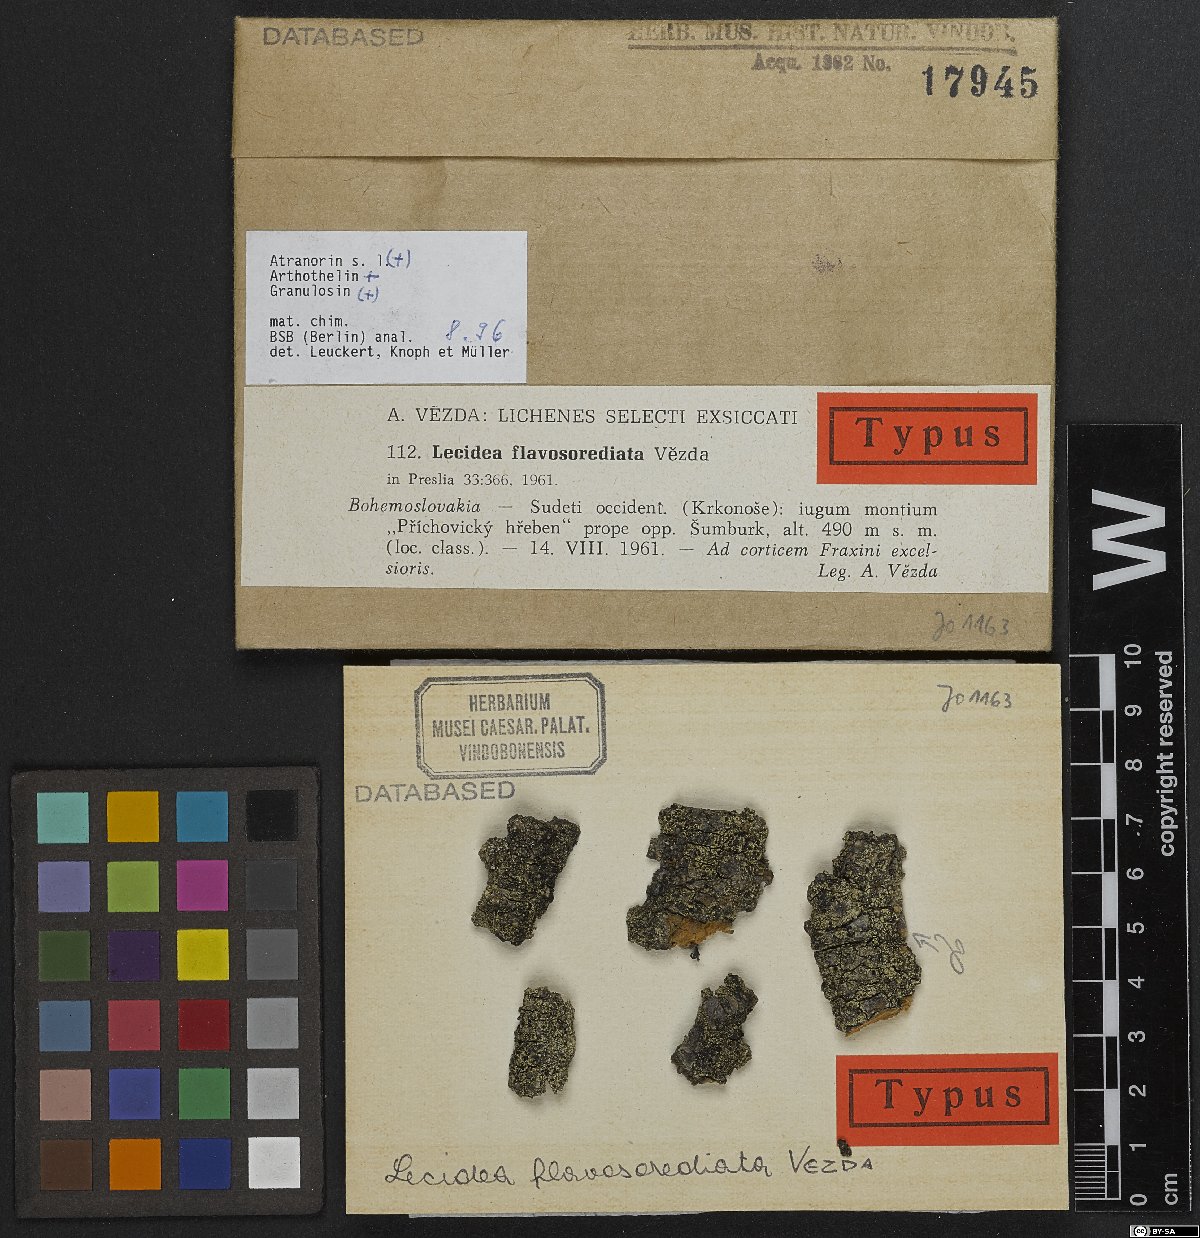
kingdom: Fungi
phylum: Ascomycota
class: Lecanoromycetes
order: Lecanorales
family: Lecanoraceae
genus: Lecidella
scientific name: Lecidella flavosorediata
